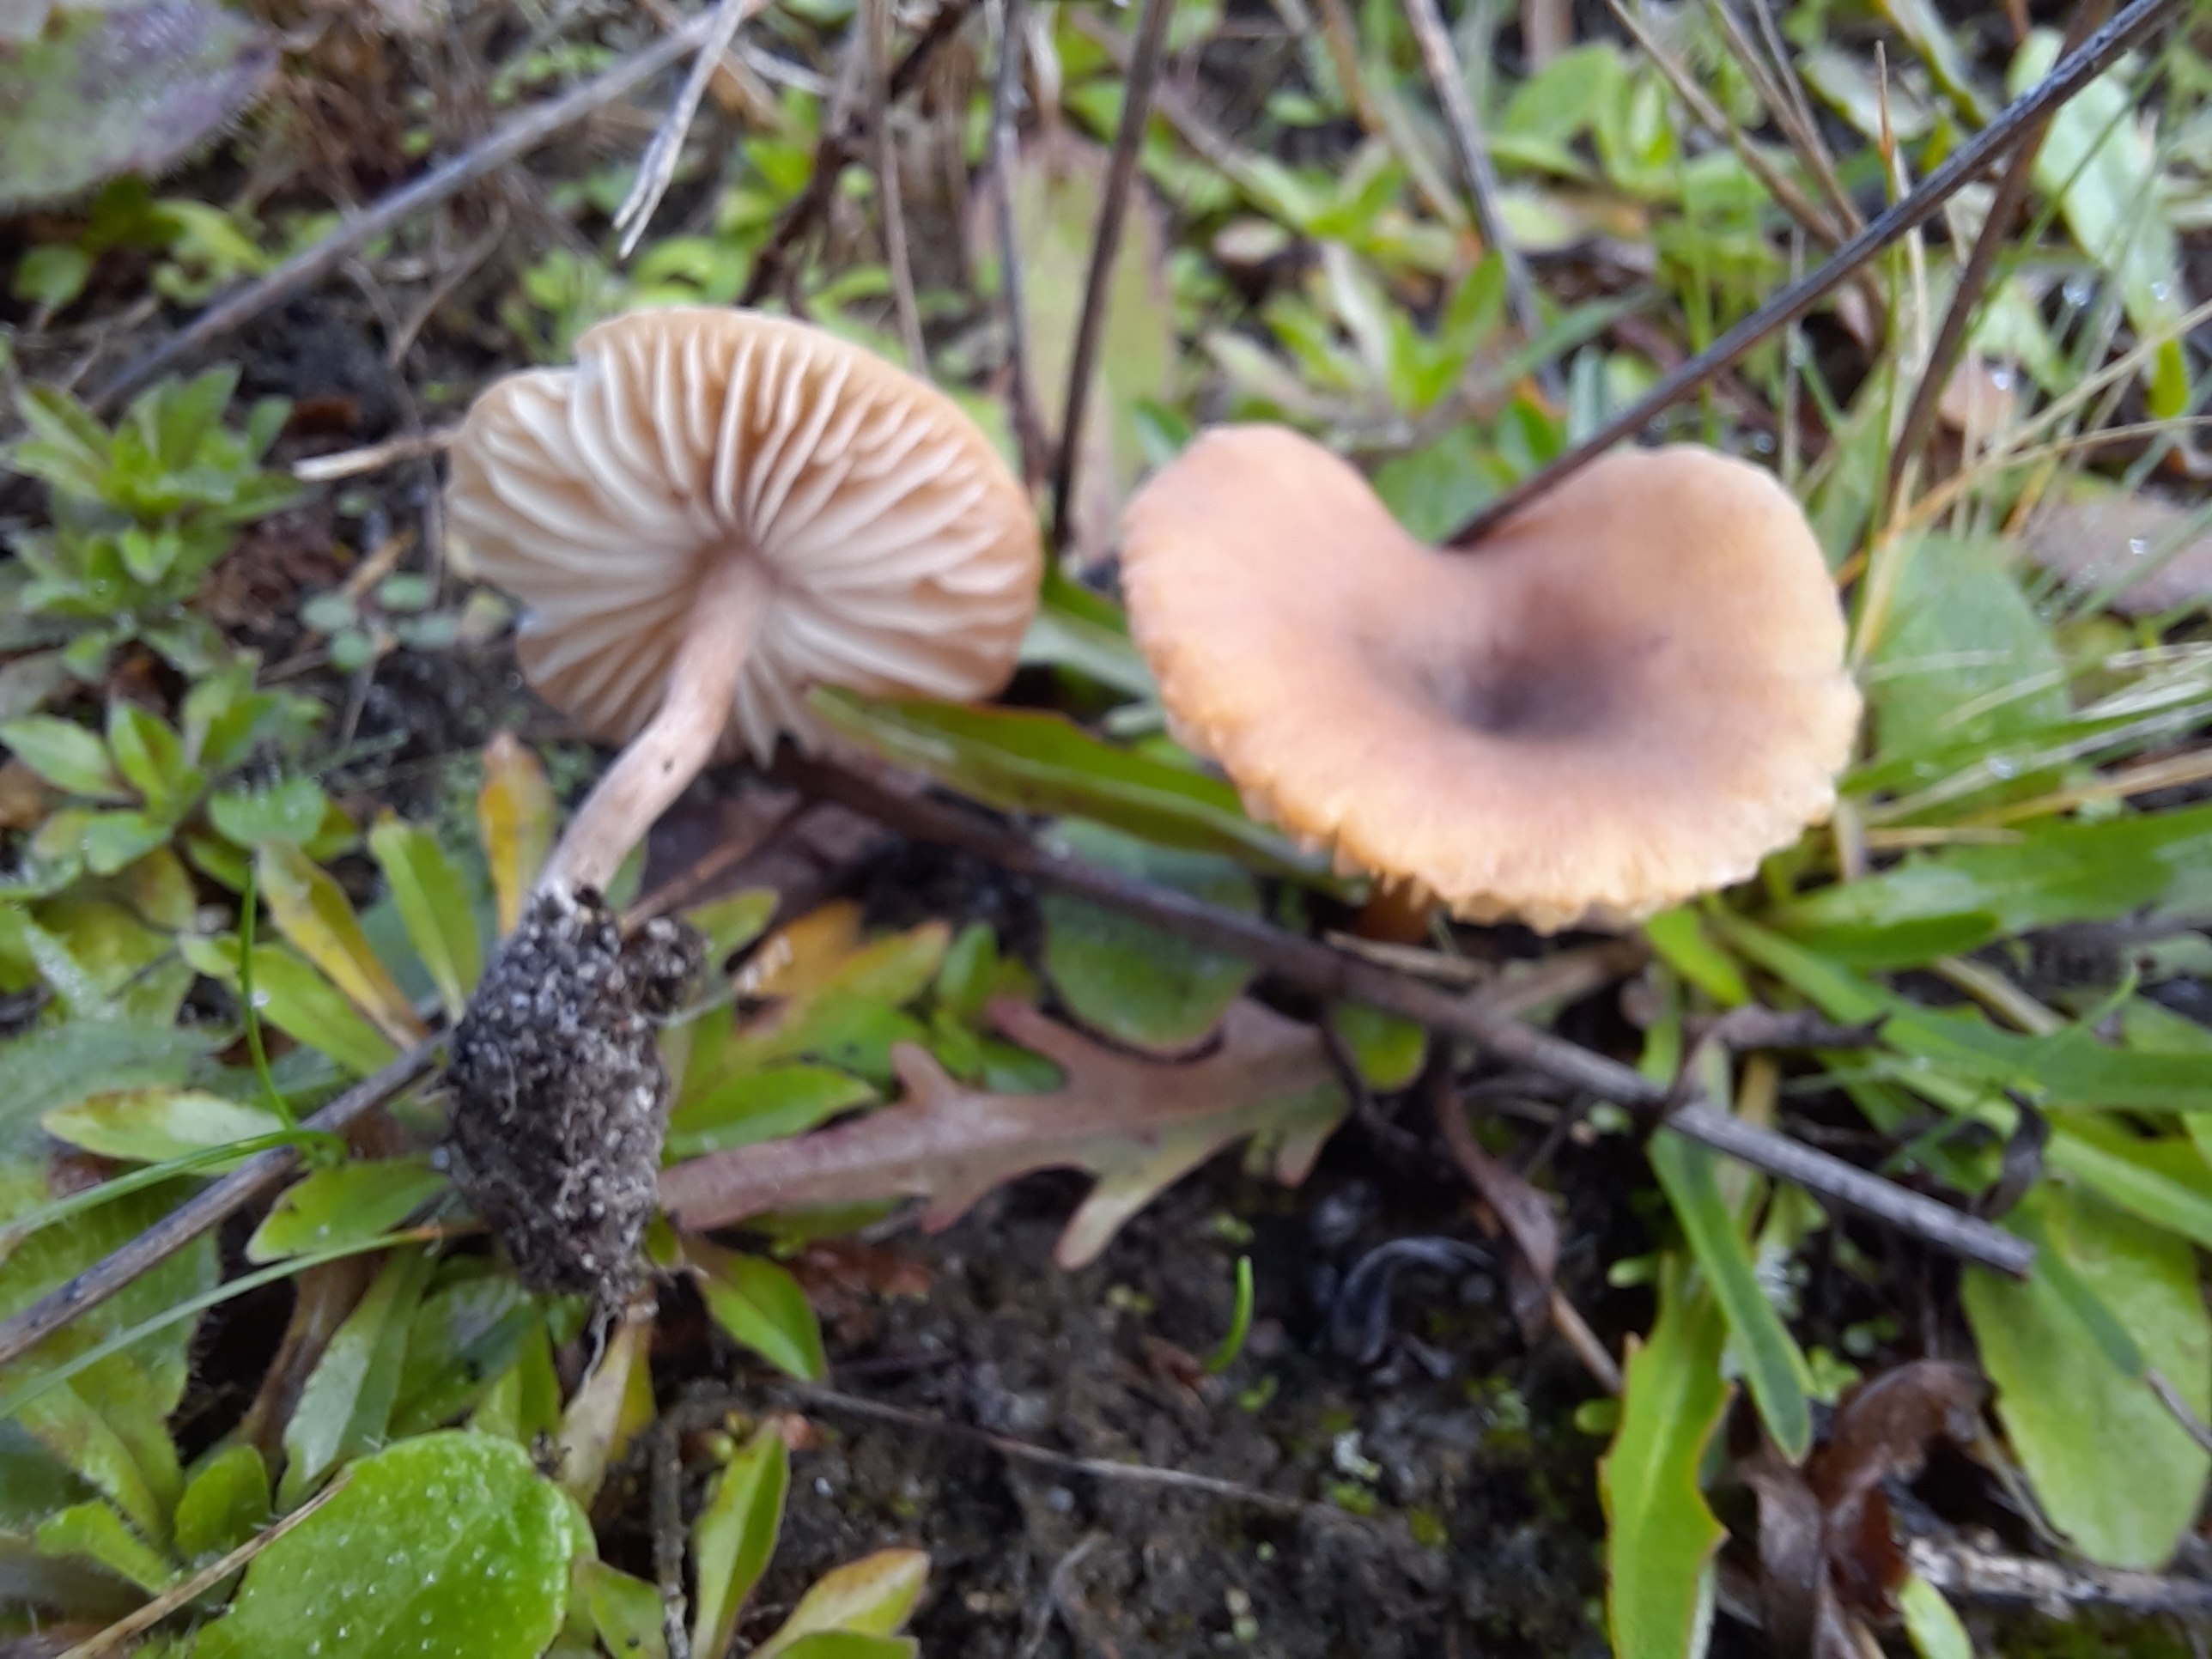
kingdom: Fungi
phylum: Basidiomycota
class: Agaricomycetes
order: Agaricales
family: Callistosporiaceae
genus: Pseudolaccaria
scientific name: Pseudolaccaria pachyphylla
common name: hvælvet tykblad
